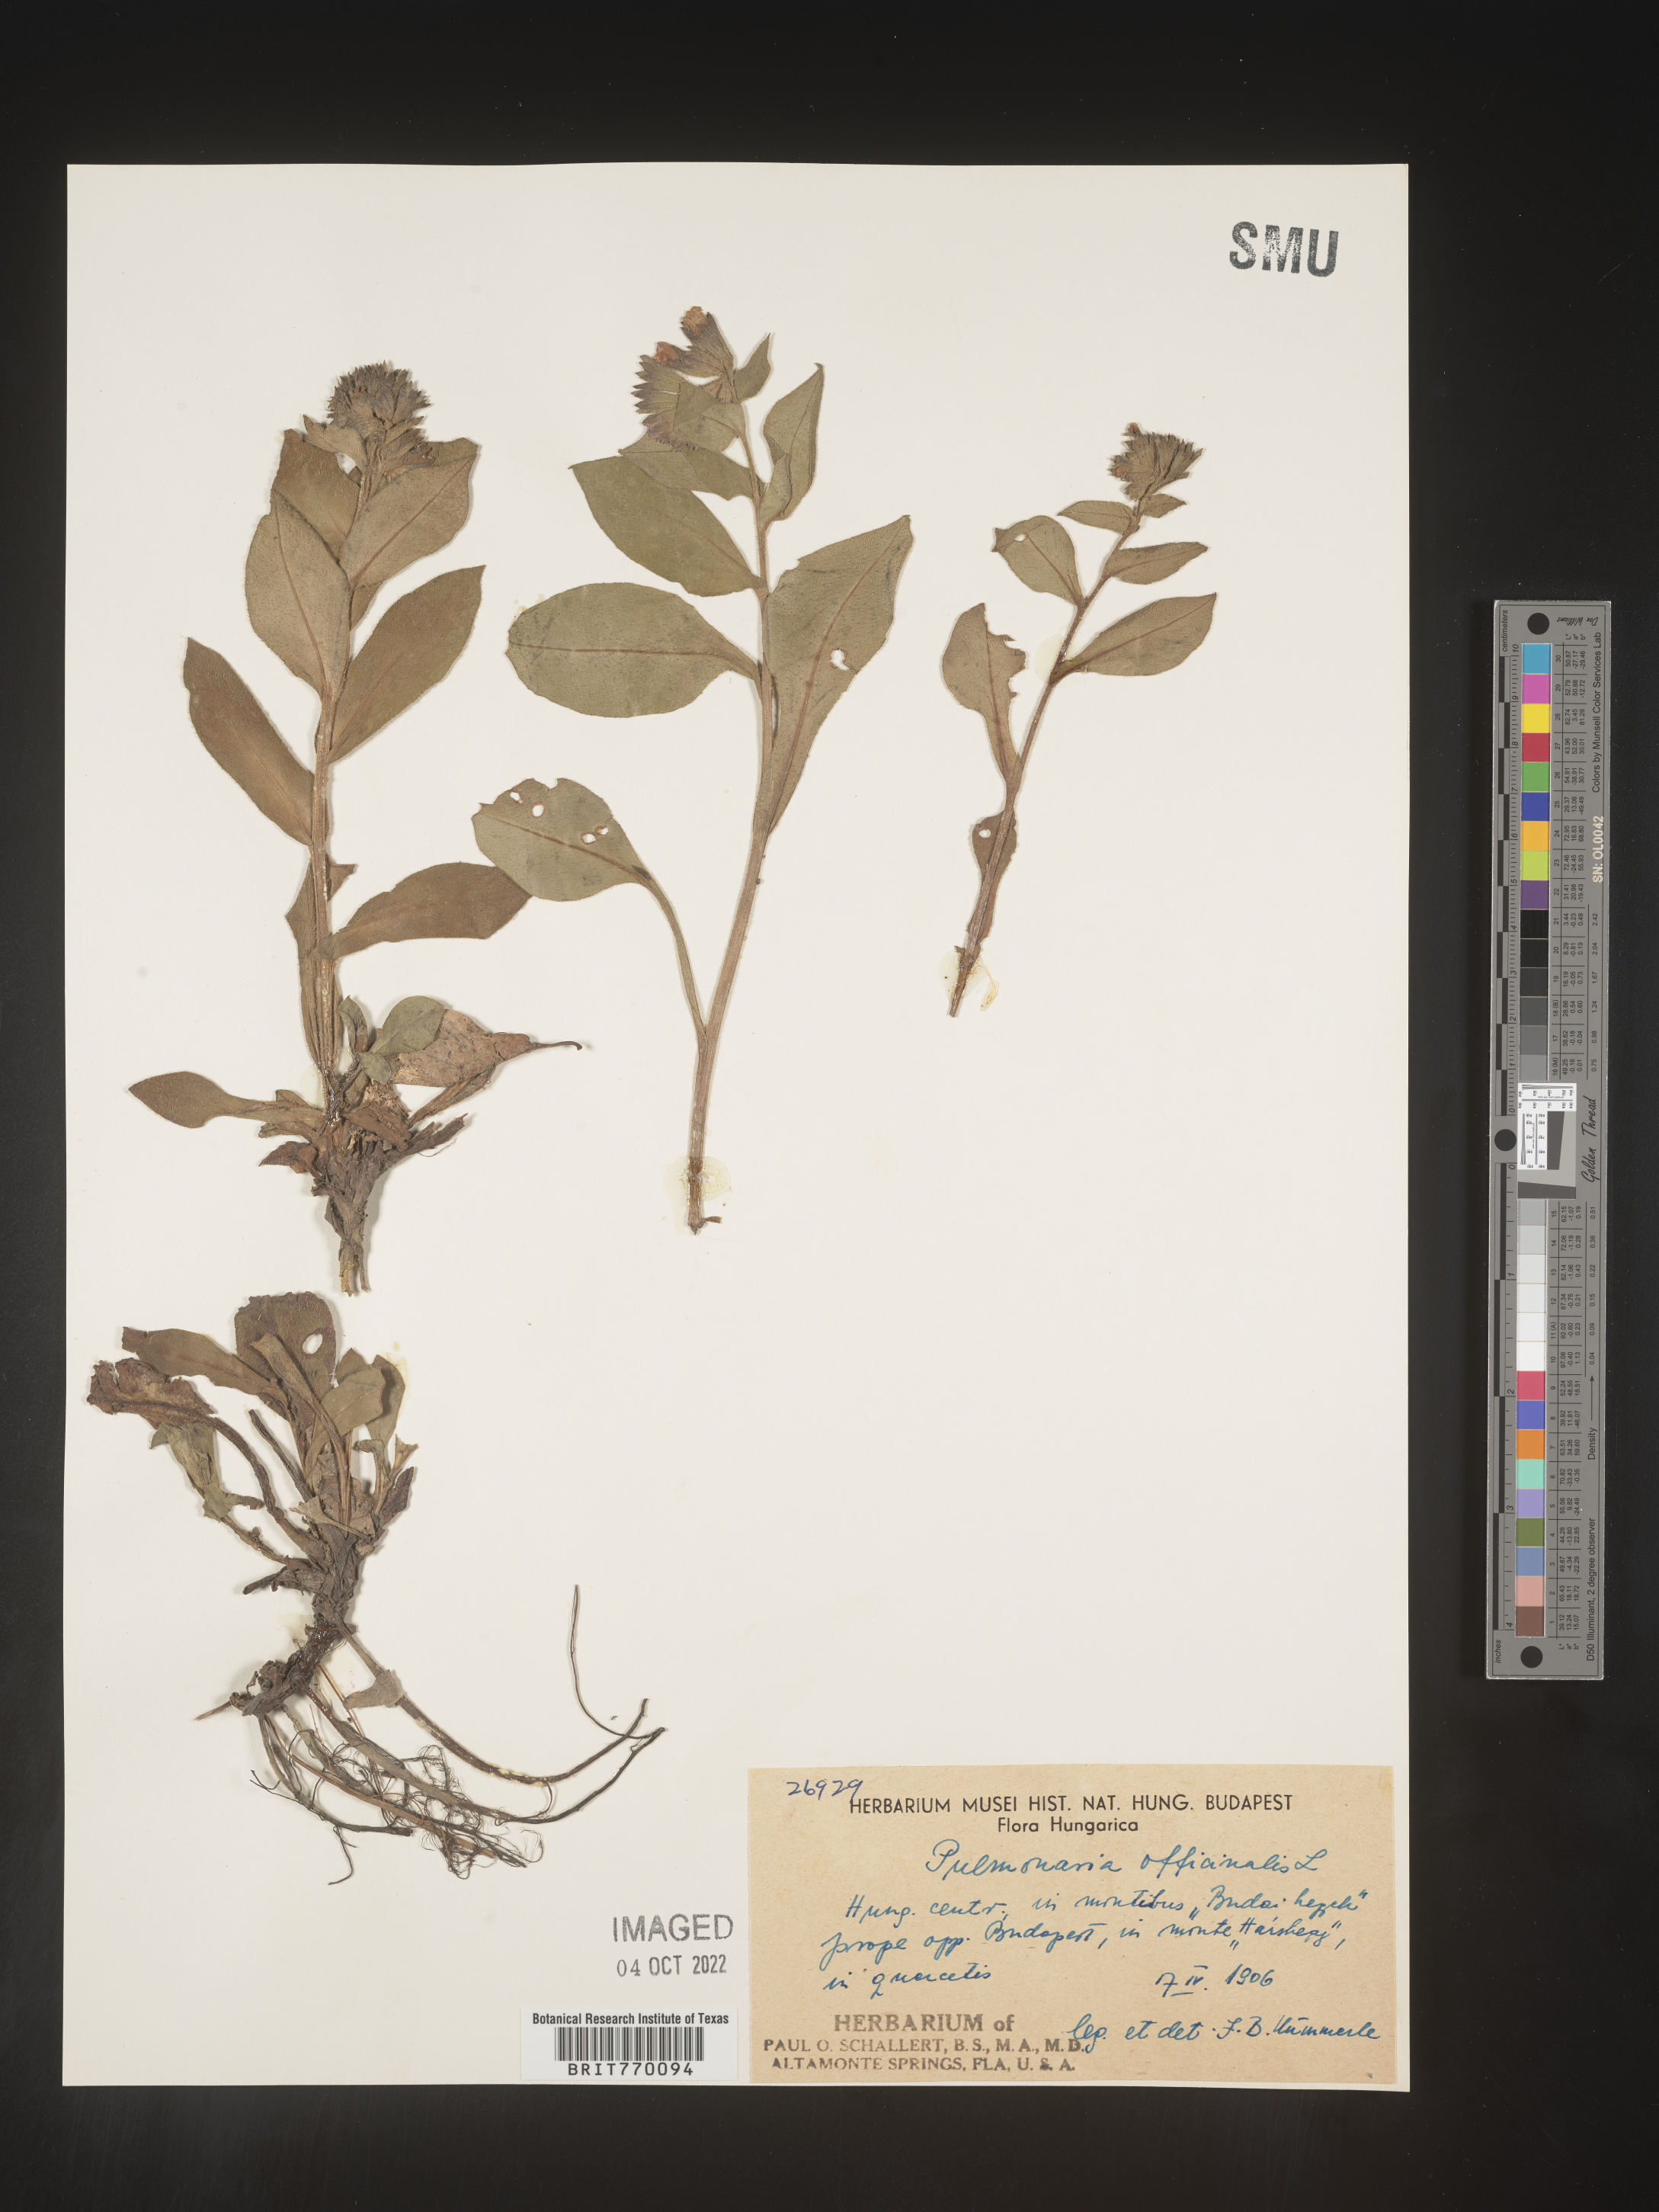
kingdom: Plantae
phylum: Tracheophyta
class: Magnoliopsida
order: Boraginales
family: Boraginaceae
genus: Pulmonaria
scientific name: Pulmonaria
